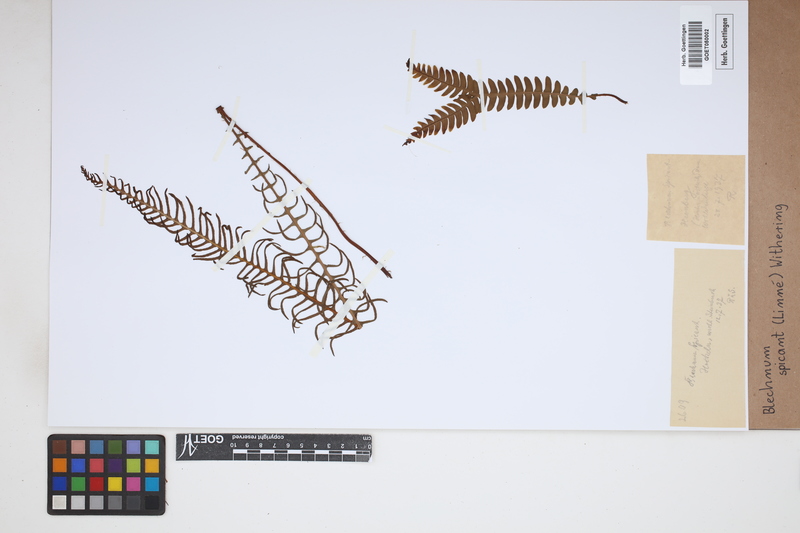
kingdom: Plantae
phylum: Tracheophyta
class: Polypodiopsida
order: Polypodiales
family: Blechnaceae
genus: Struthiopteris
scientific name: Struthiopteris spicant
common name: Deer fern
